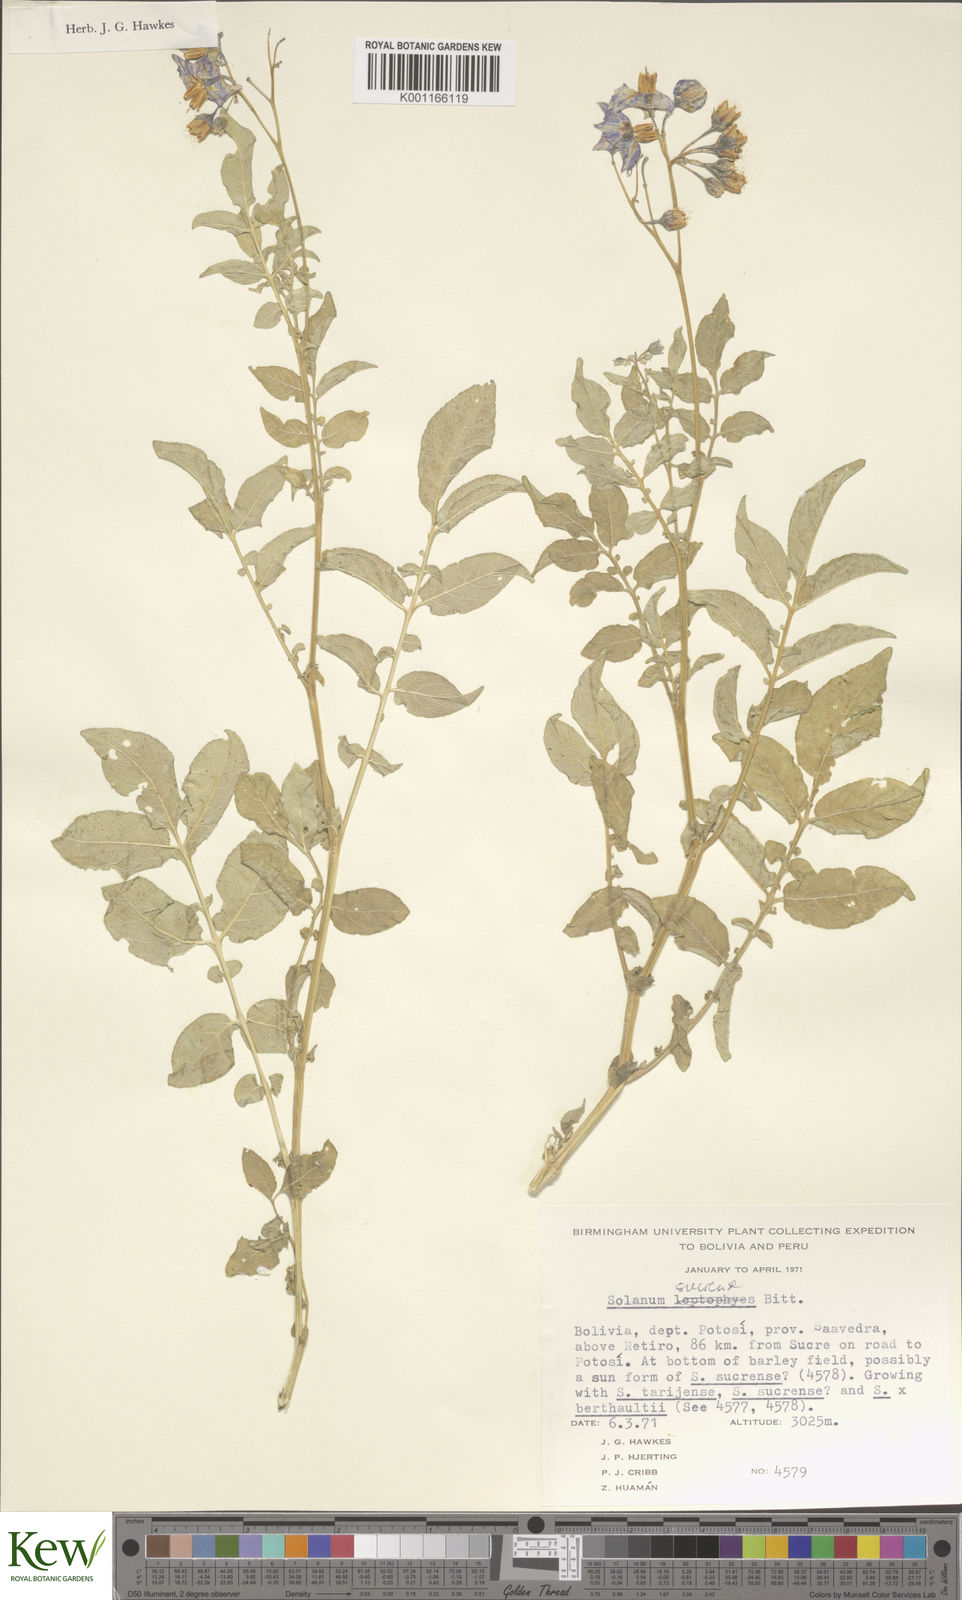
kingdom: Plantae
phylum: Tracheophyta
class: Magnoliopsida
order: Solanales
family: Solanaceae
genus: Solanum
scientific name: Solanum brevicaule
